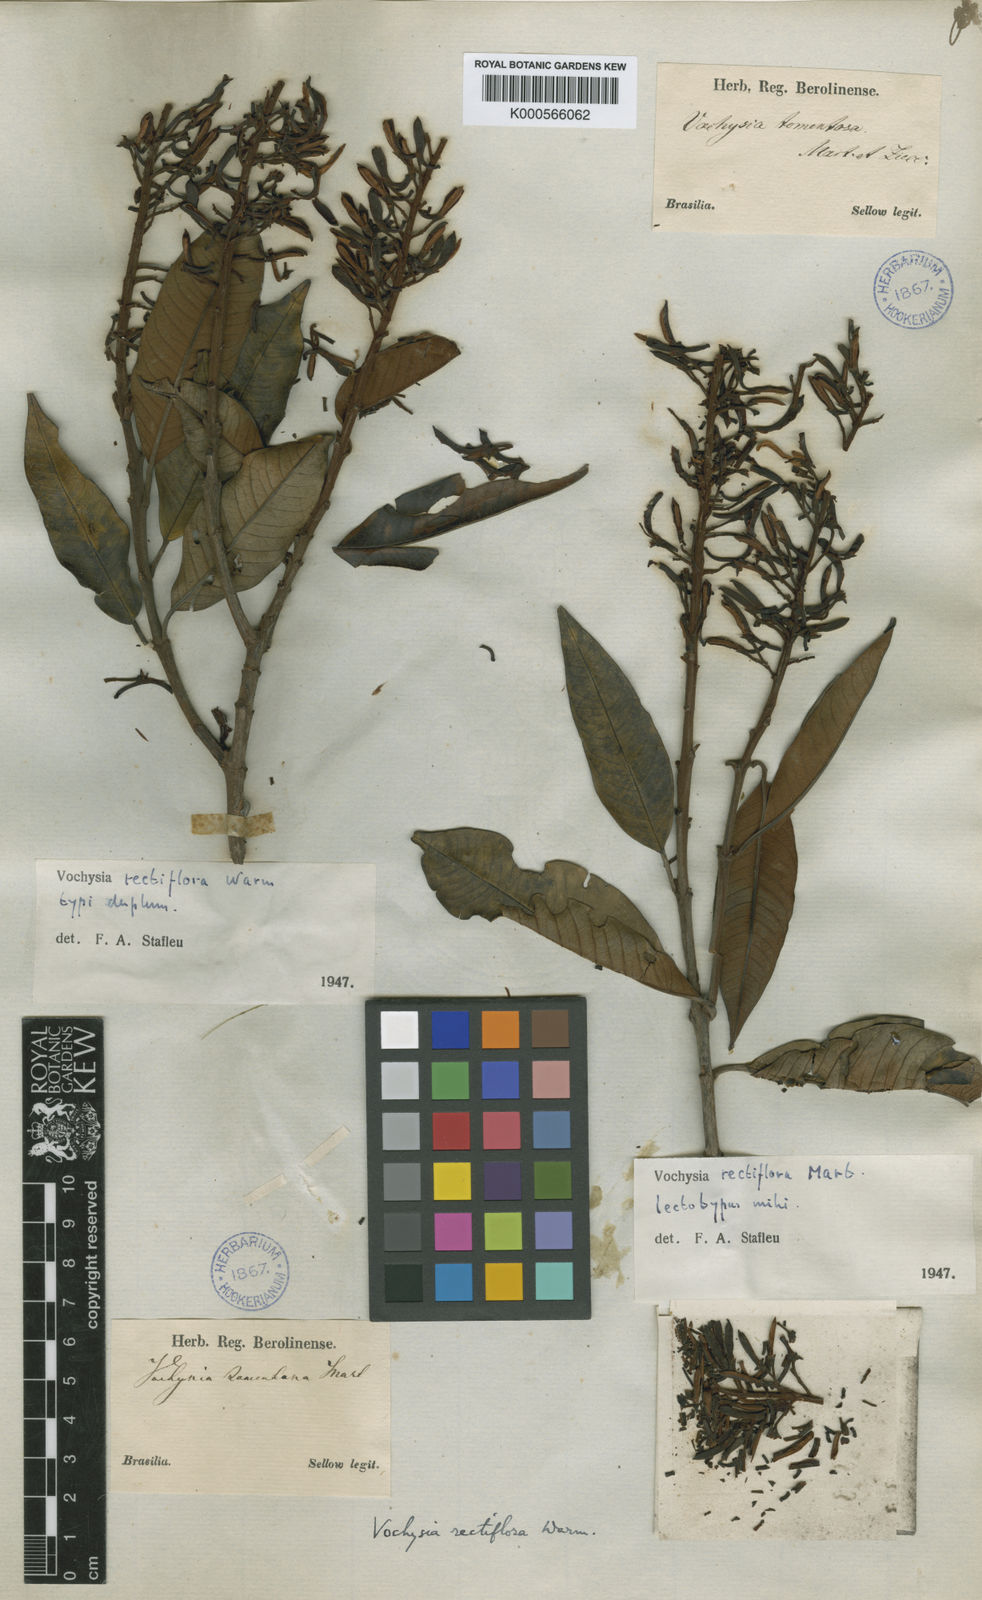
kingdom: Plantae
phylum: Tracheophyta
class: Magnoliopsida
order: Myrtales
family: Vochysiaceae
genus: Vochysia
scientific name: Vochysia rectiflora
